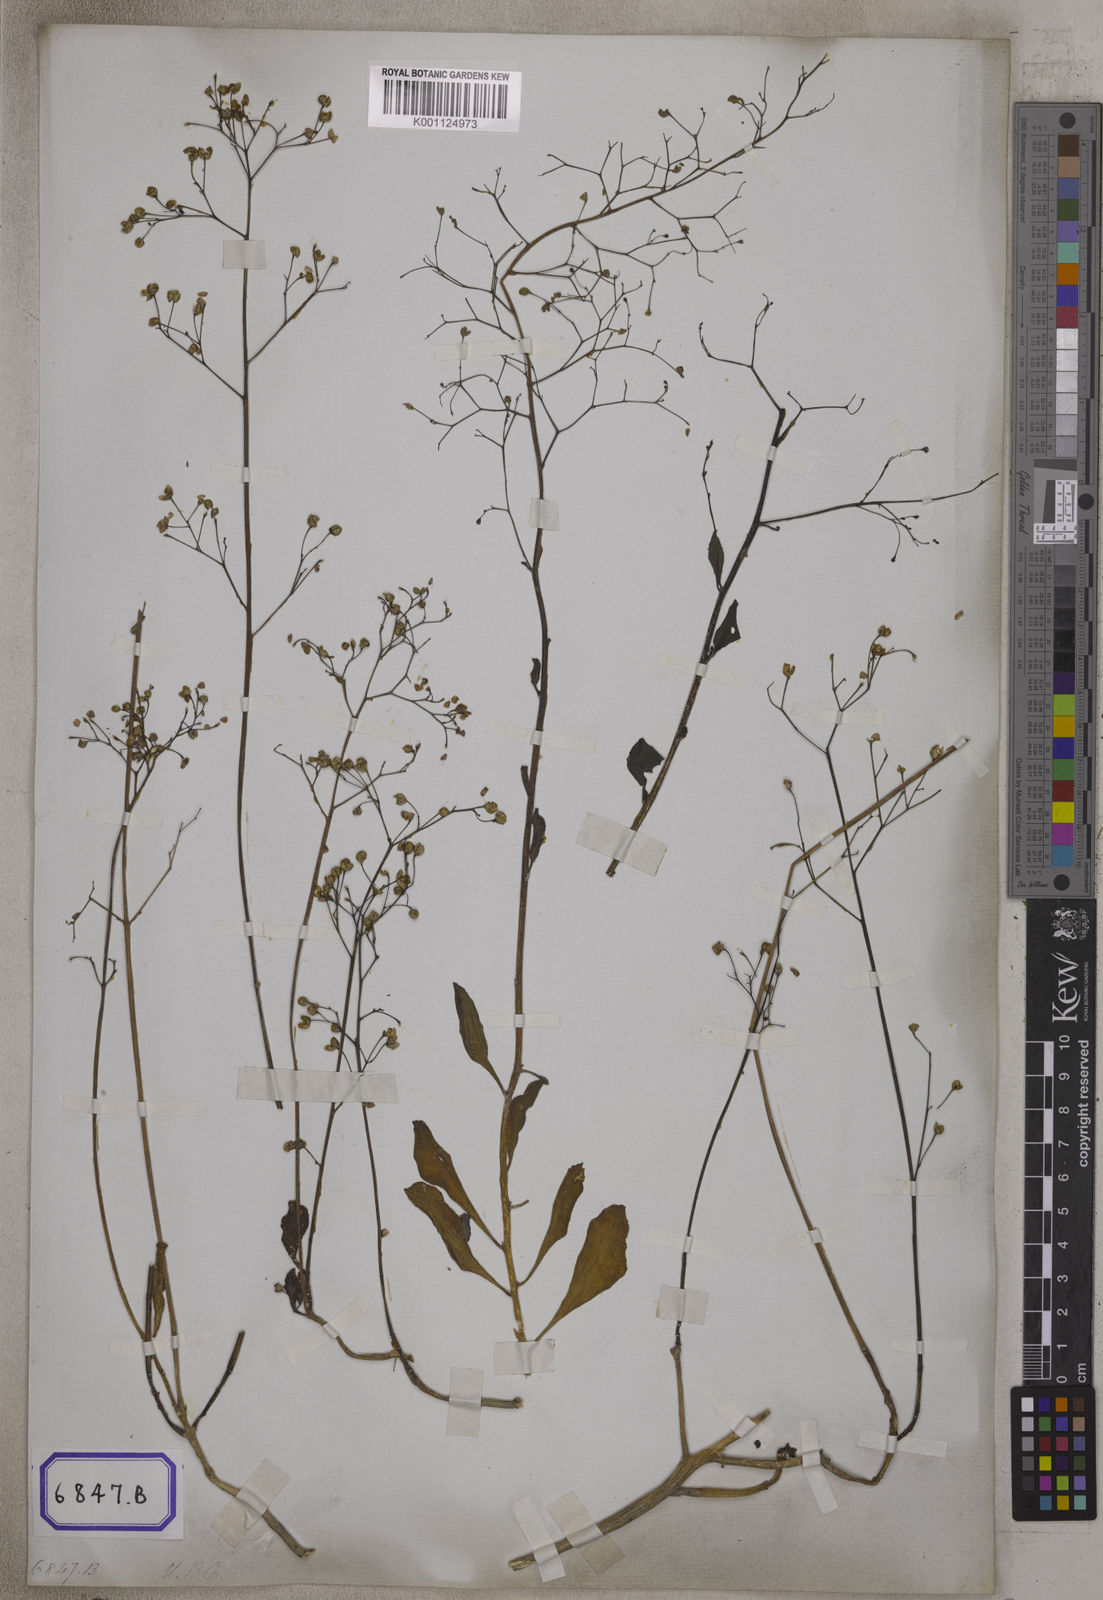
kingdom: Plantae
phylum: Tracheophyta
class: Magnoliopsida
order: Caryophyllales
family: Talinaceae
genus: Talinum
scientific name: Talinum portulacifolium
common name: Flameflower
